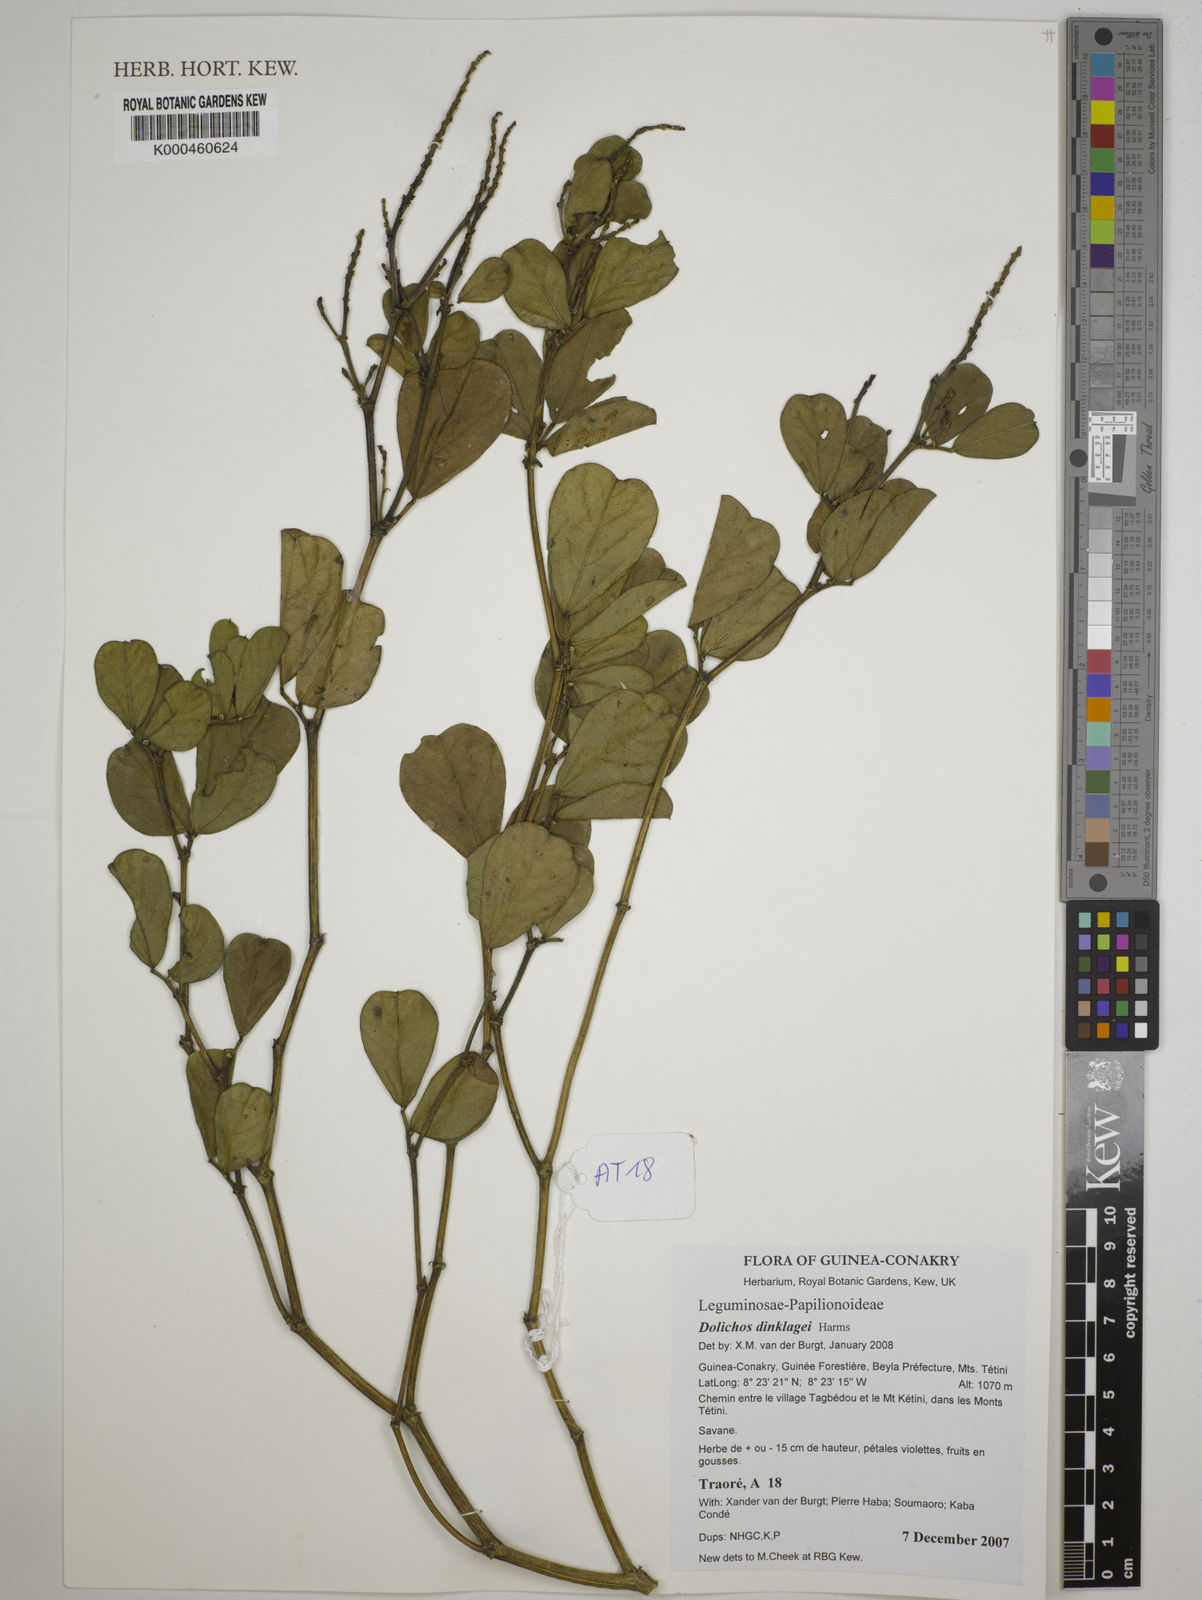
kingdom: Plantae
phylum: Tracheophyta
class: Magnoliopsida
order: Fabales
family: Fabaceae
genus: Dolichos
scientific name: Dolichos dinklagei
